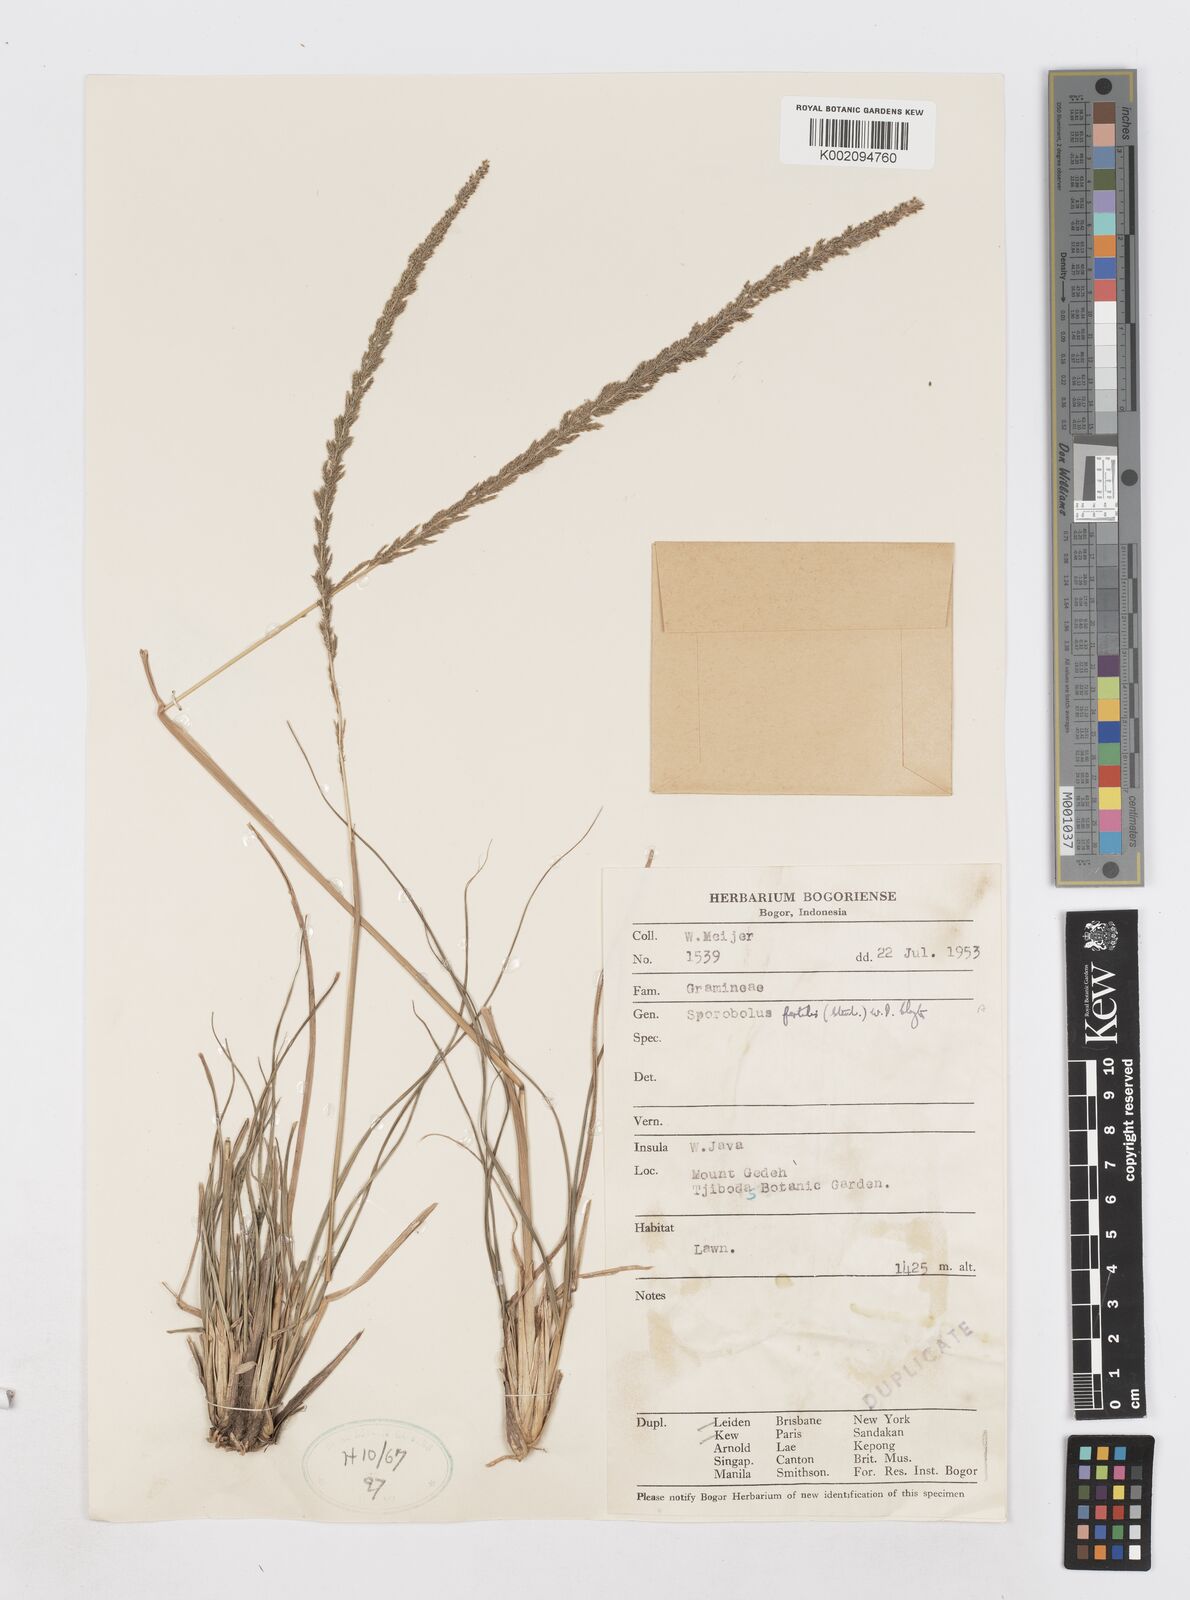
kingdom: Plantae
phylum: Tracheophyta
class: Liliopsida
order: Poales
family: Poaceae
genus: Sporobolus
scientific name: Sporobolus fertilis
